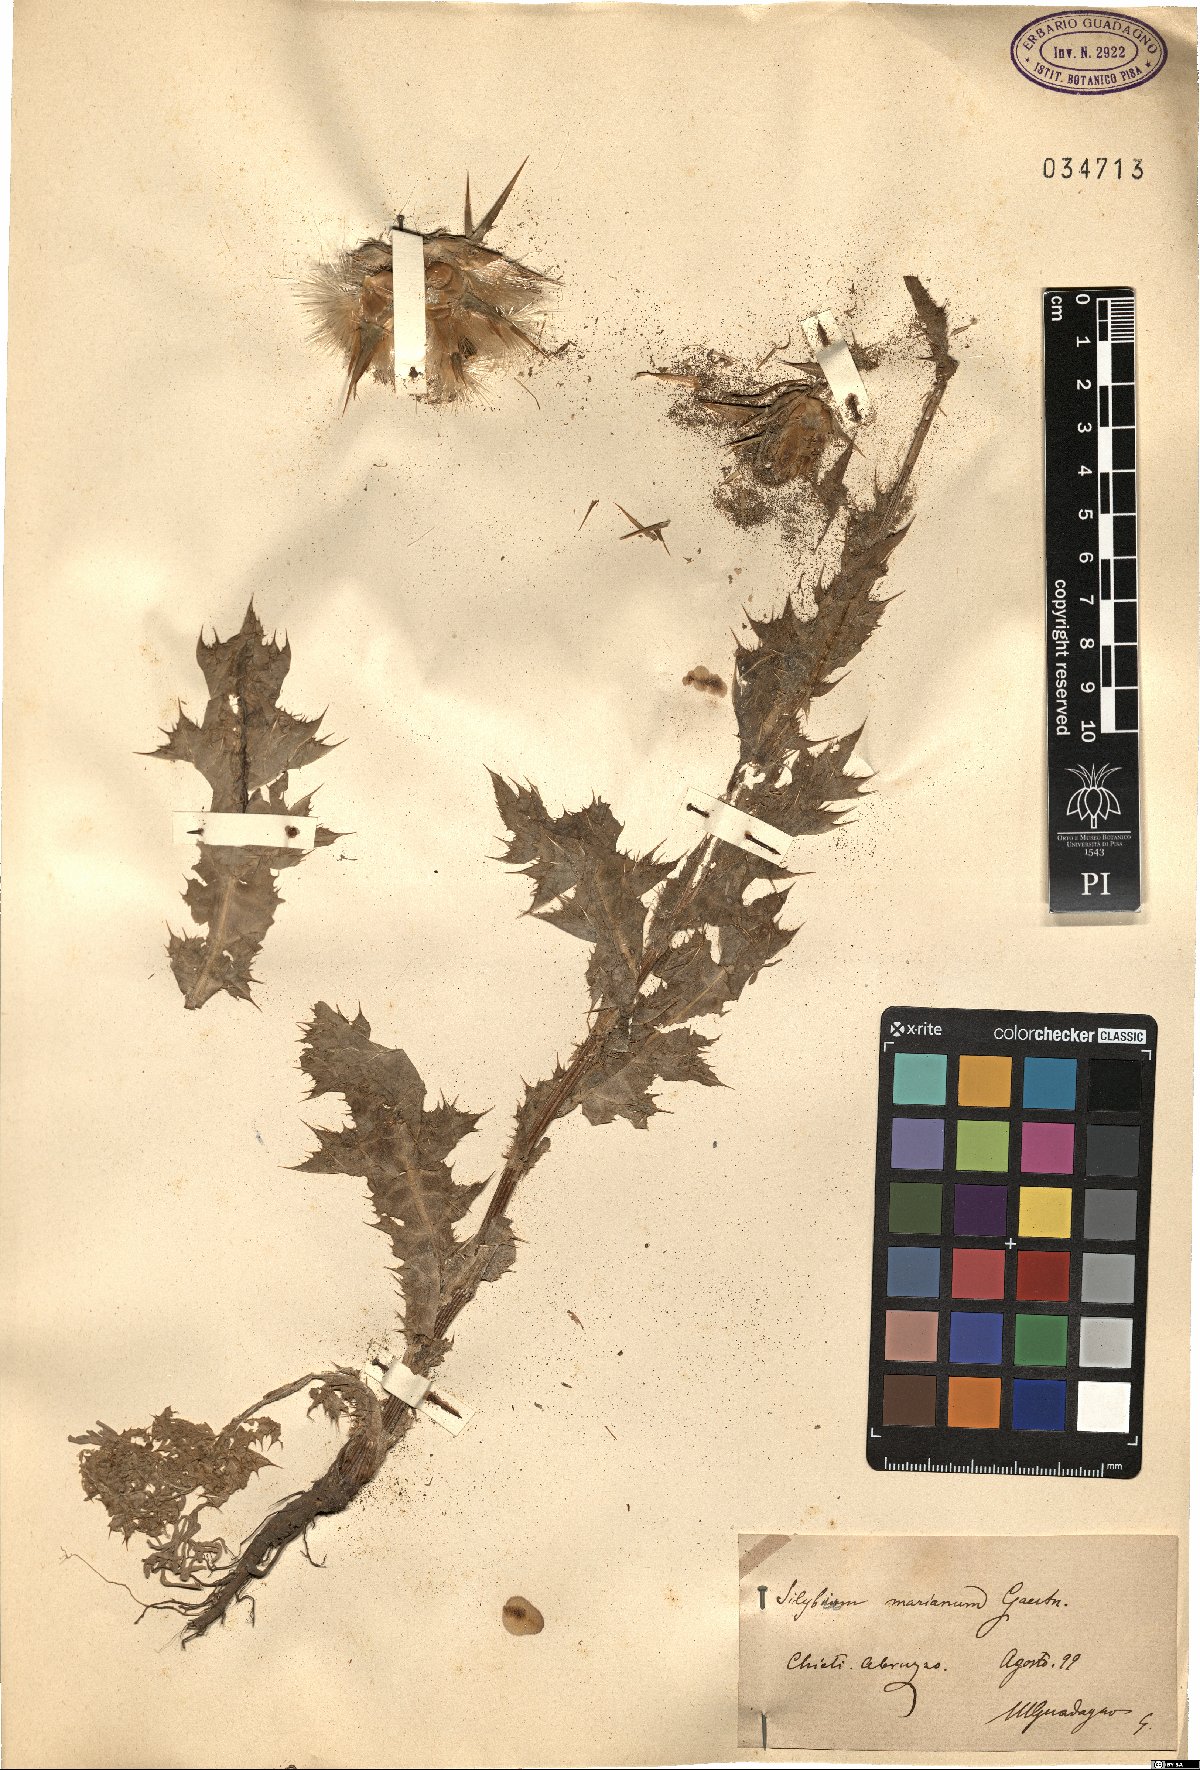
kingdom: Plantae
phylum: Tracheophyta
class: Magnoliopsida
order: Asterales
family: Asteraceae
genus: Silybum
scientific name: Silybum marianum
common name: Milk thistle
